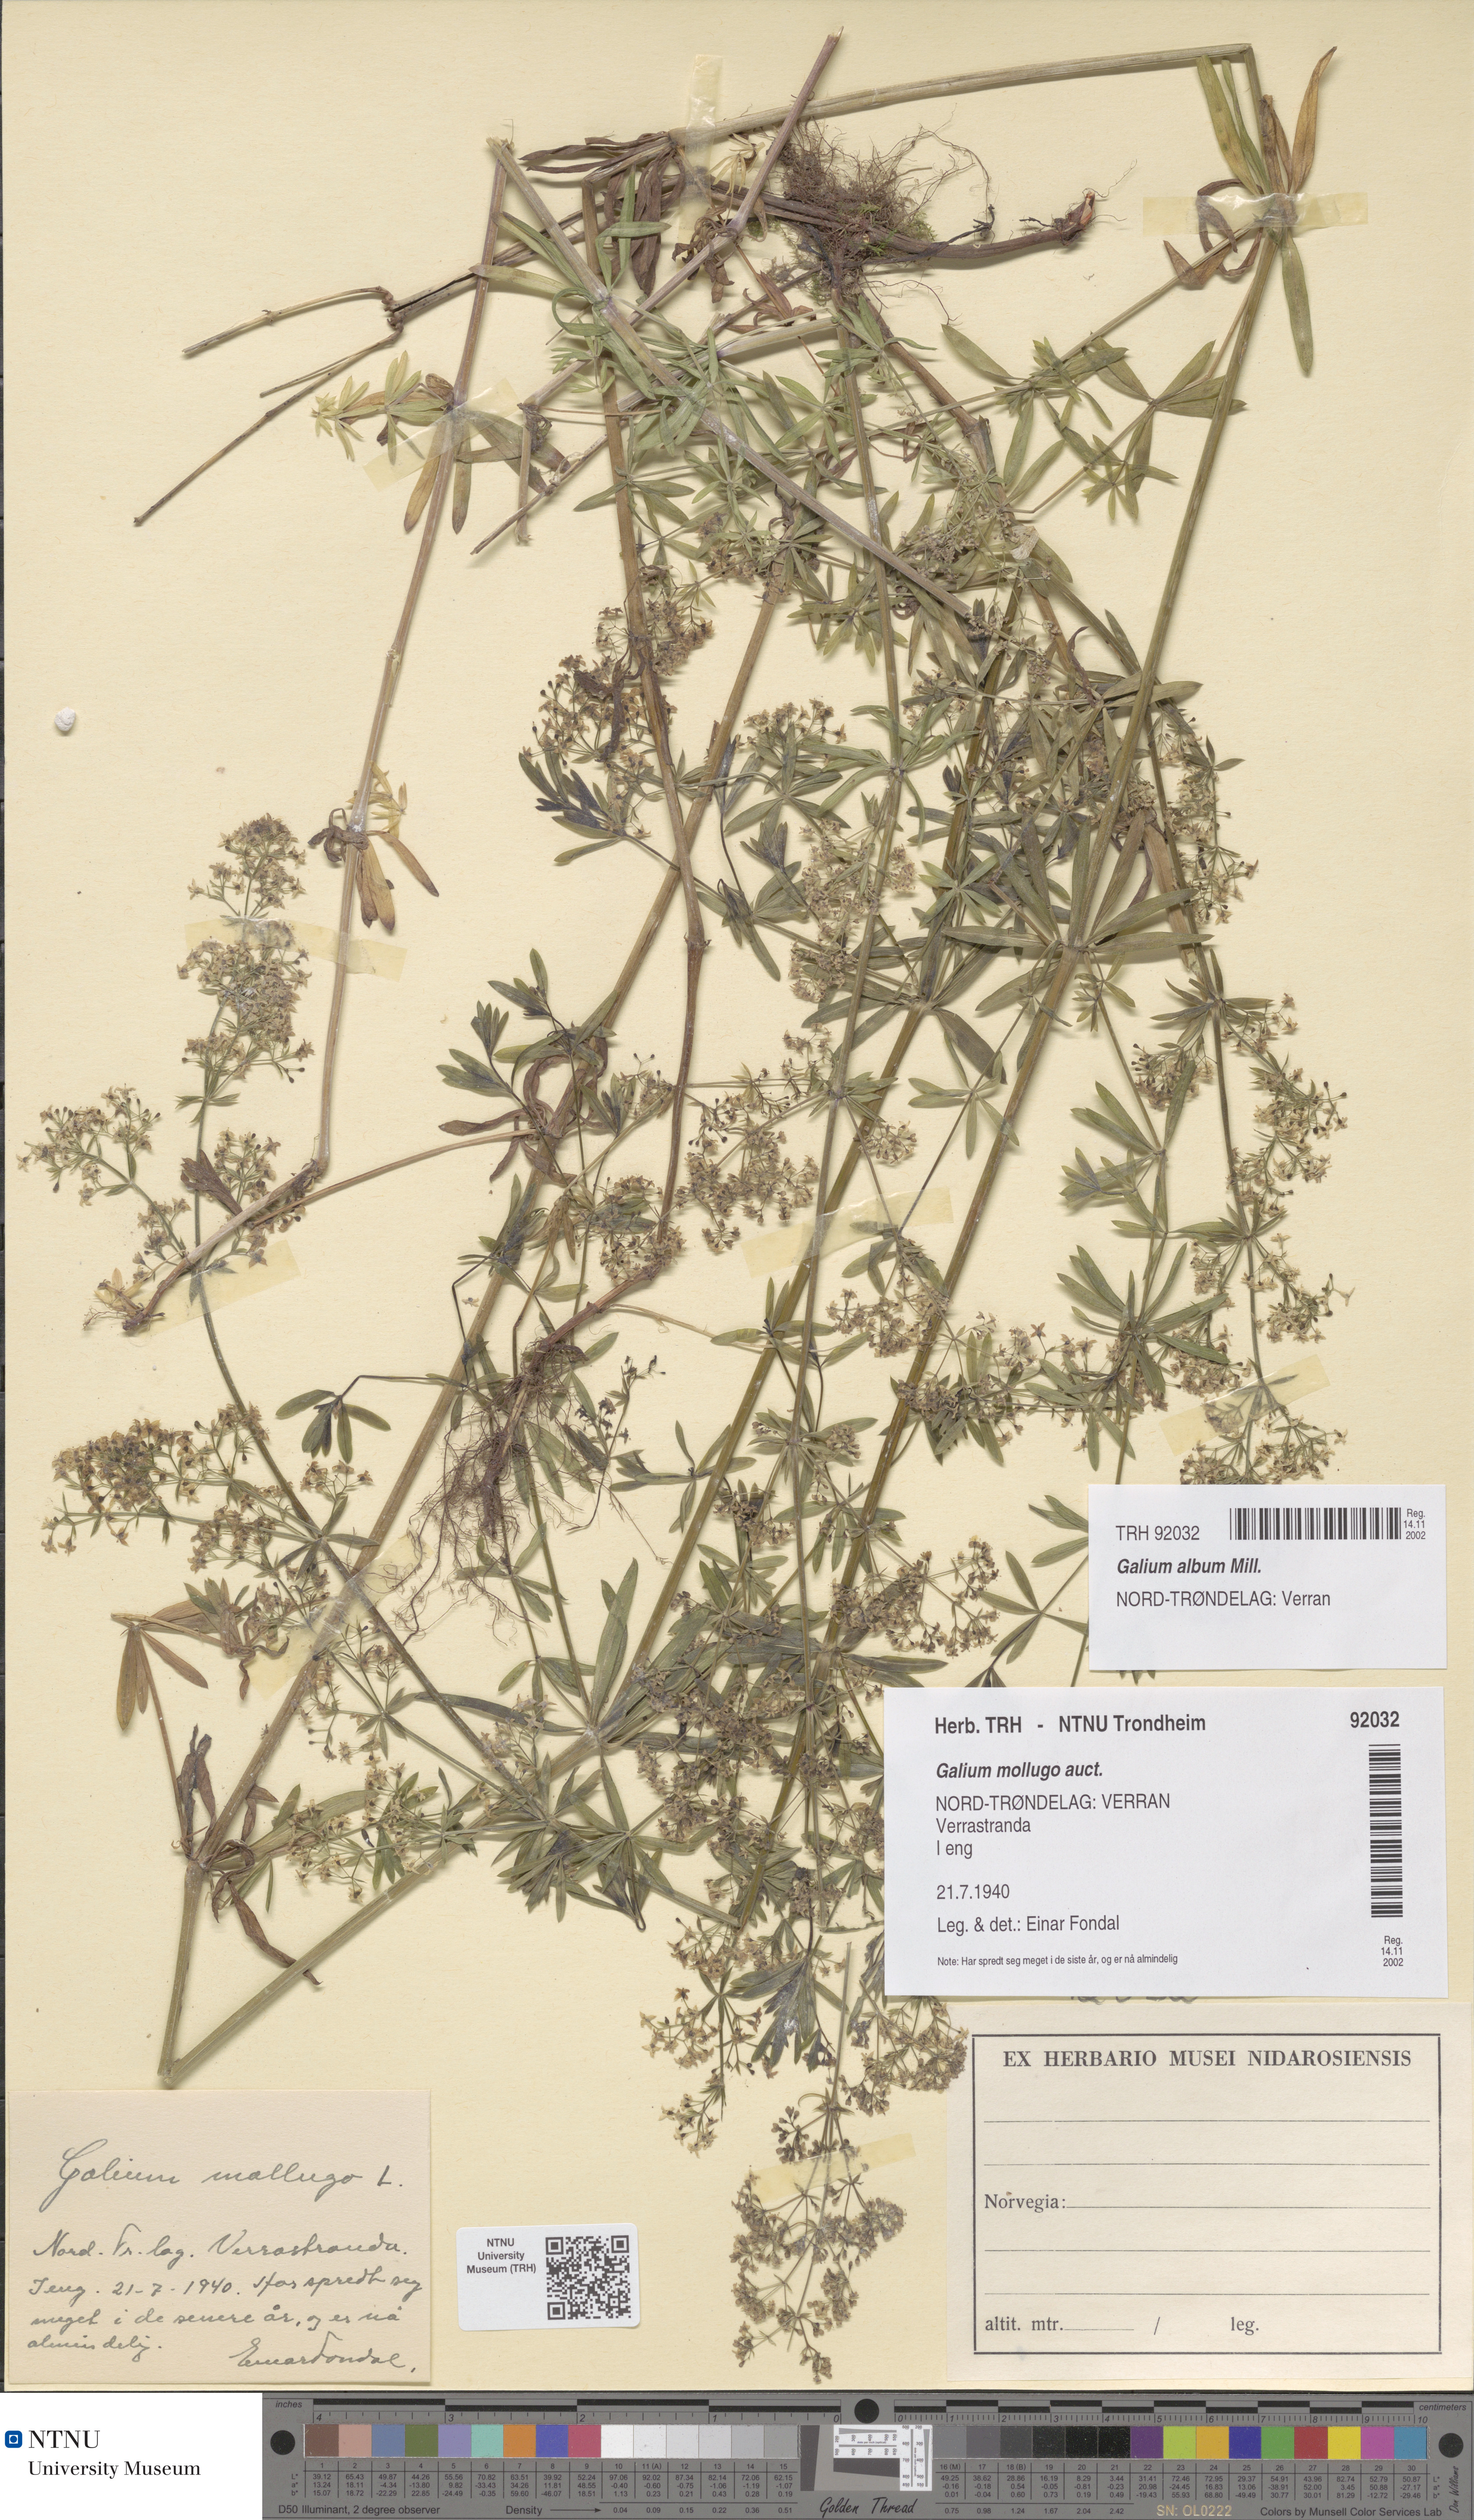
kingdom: Plantae
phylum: Tracheophyta
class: Magnoliopsida
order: Gentianales
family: Rubiaceae
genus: Galium
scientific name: Galium album
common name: White bedstraw
